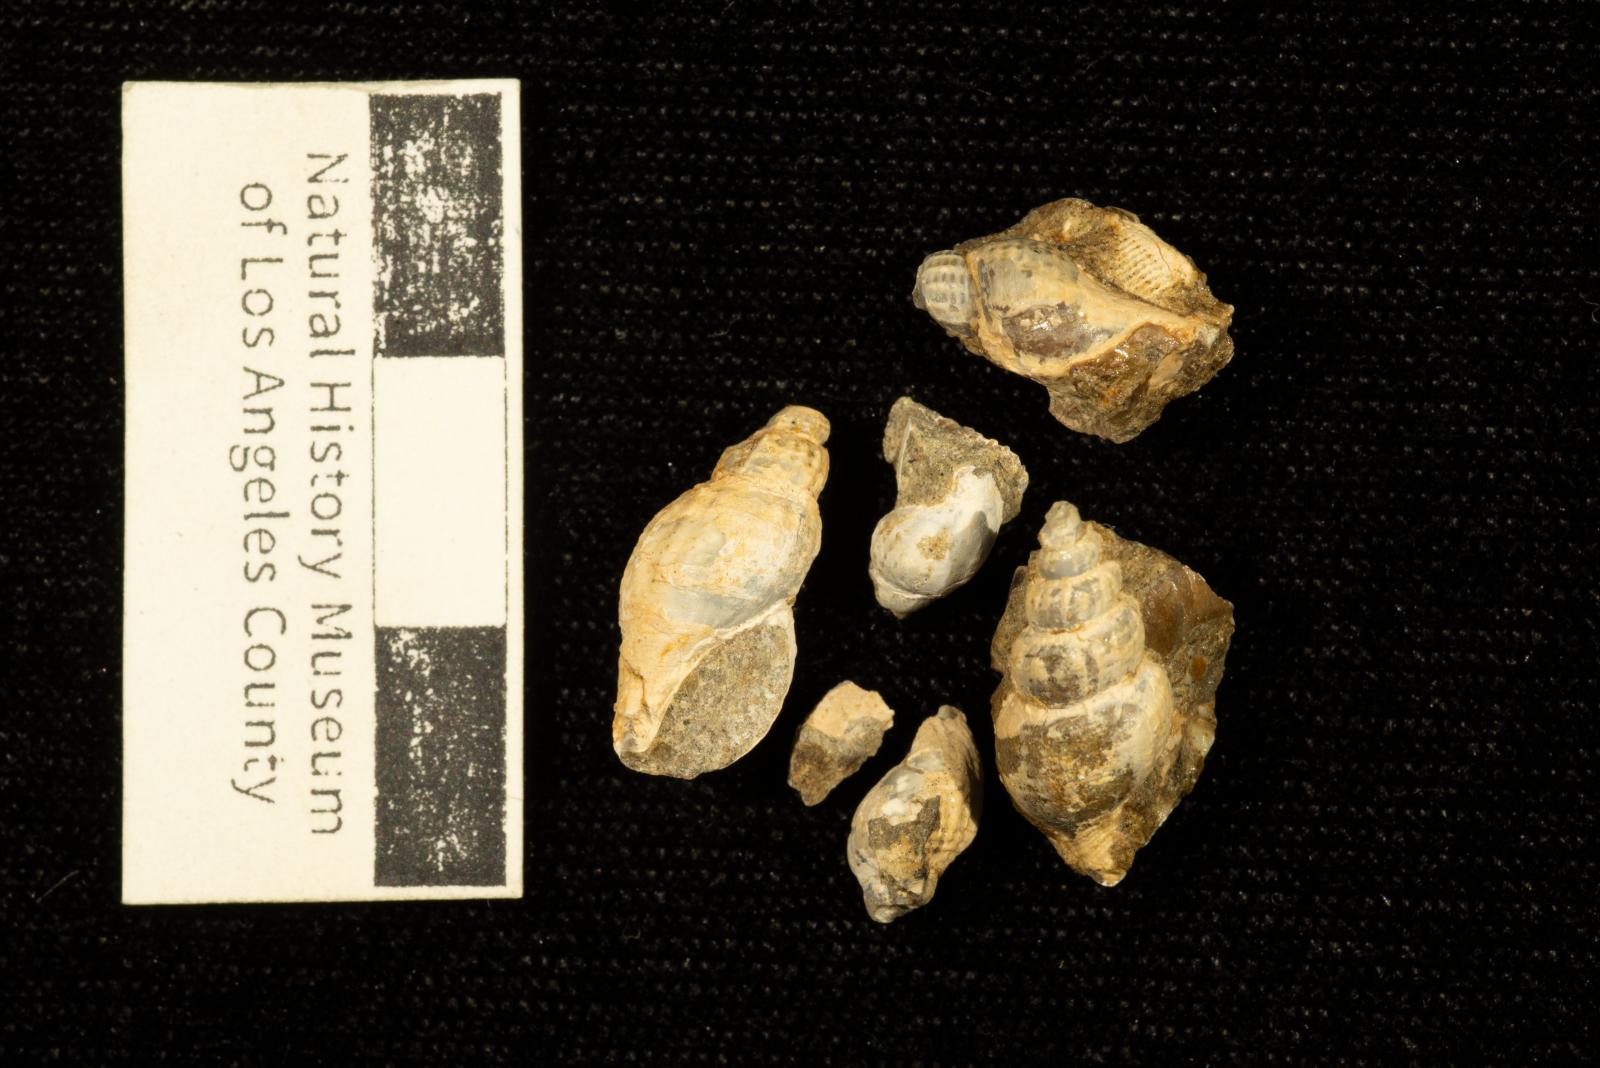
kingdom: Animalia
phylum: Mollusca
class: Gastropoda
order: Neogastropoda
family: Fasciolariidae
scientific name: Fasciolariidae
